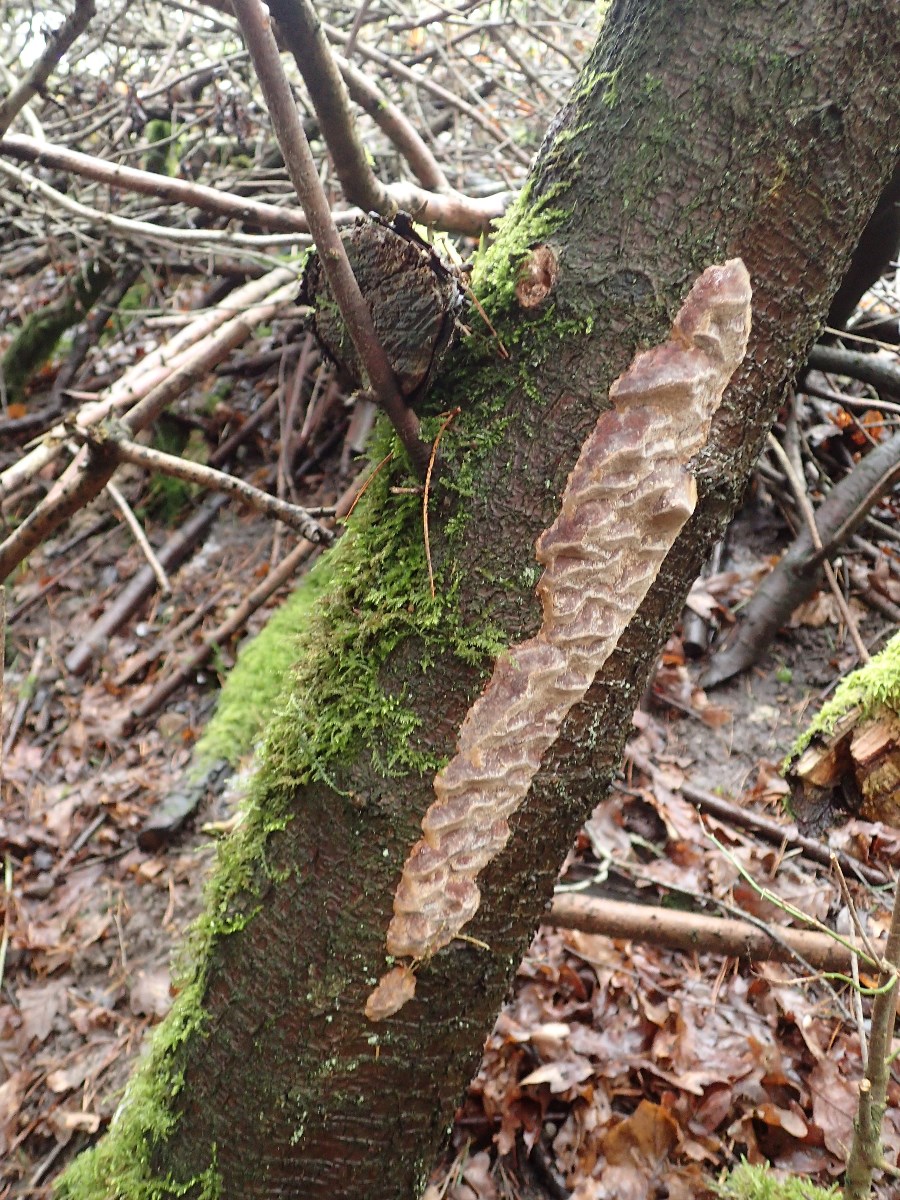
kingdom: Fungi
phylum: Basidiomycota
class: Agaricomycetes
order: Hymenochaetales
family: Hymenochaetaceae
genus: Phellinus
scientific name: Phellinus pomaceus
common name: blomme-ildporesvamp
